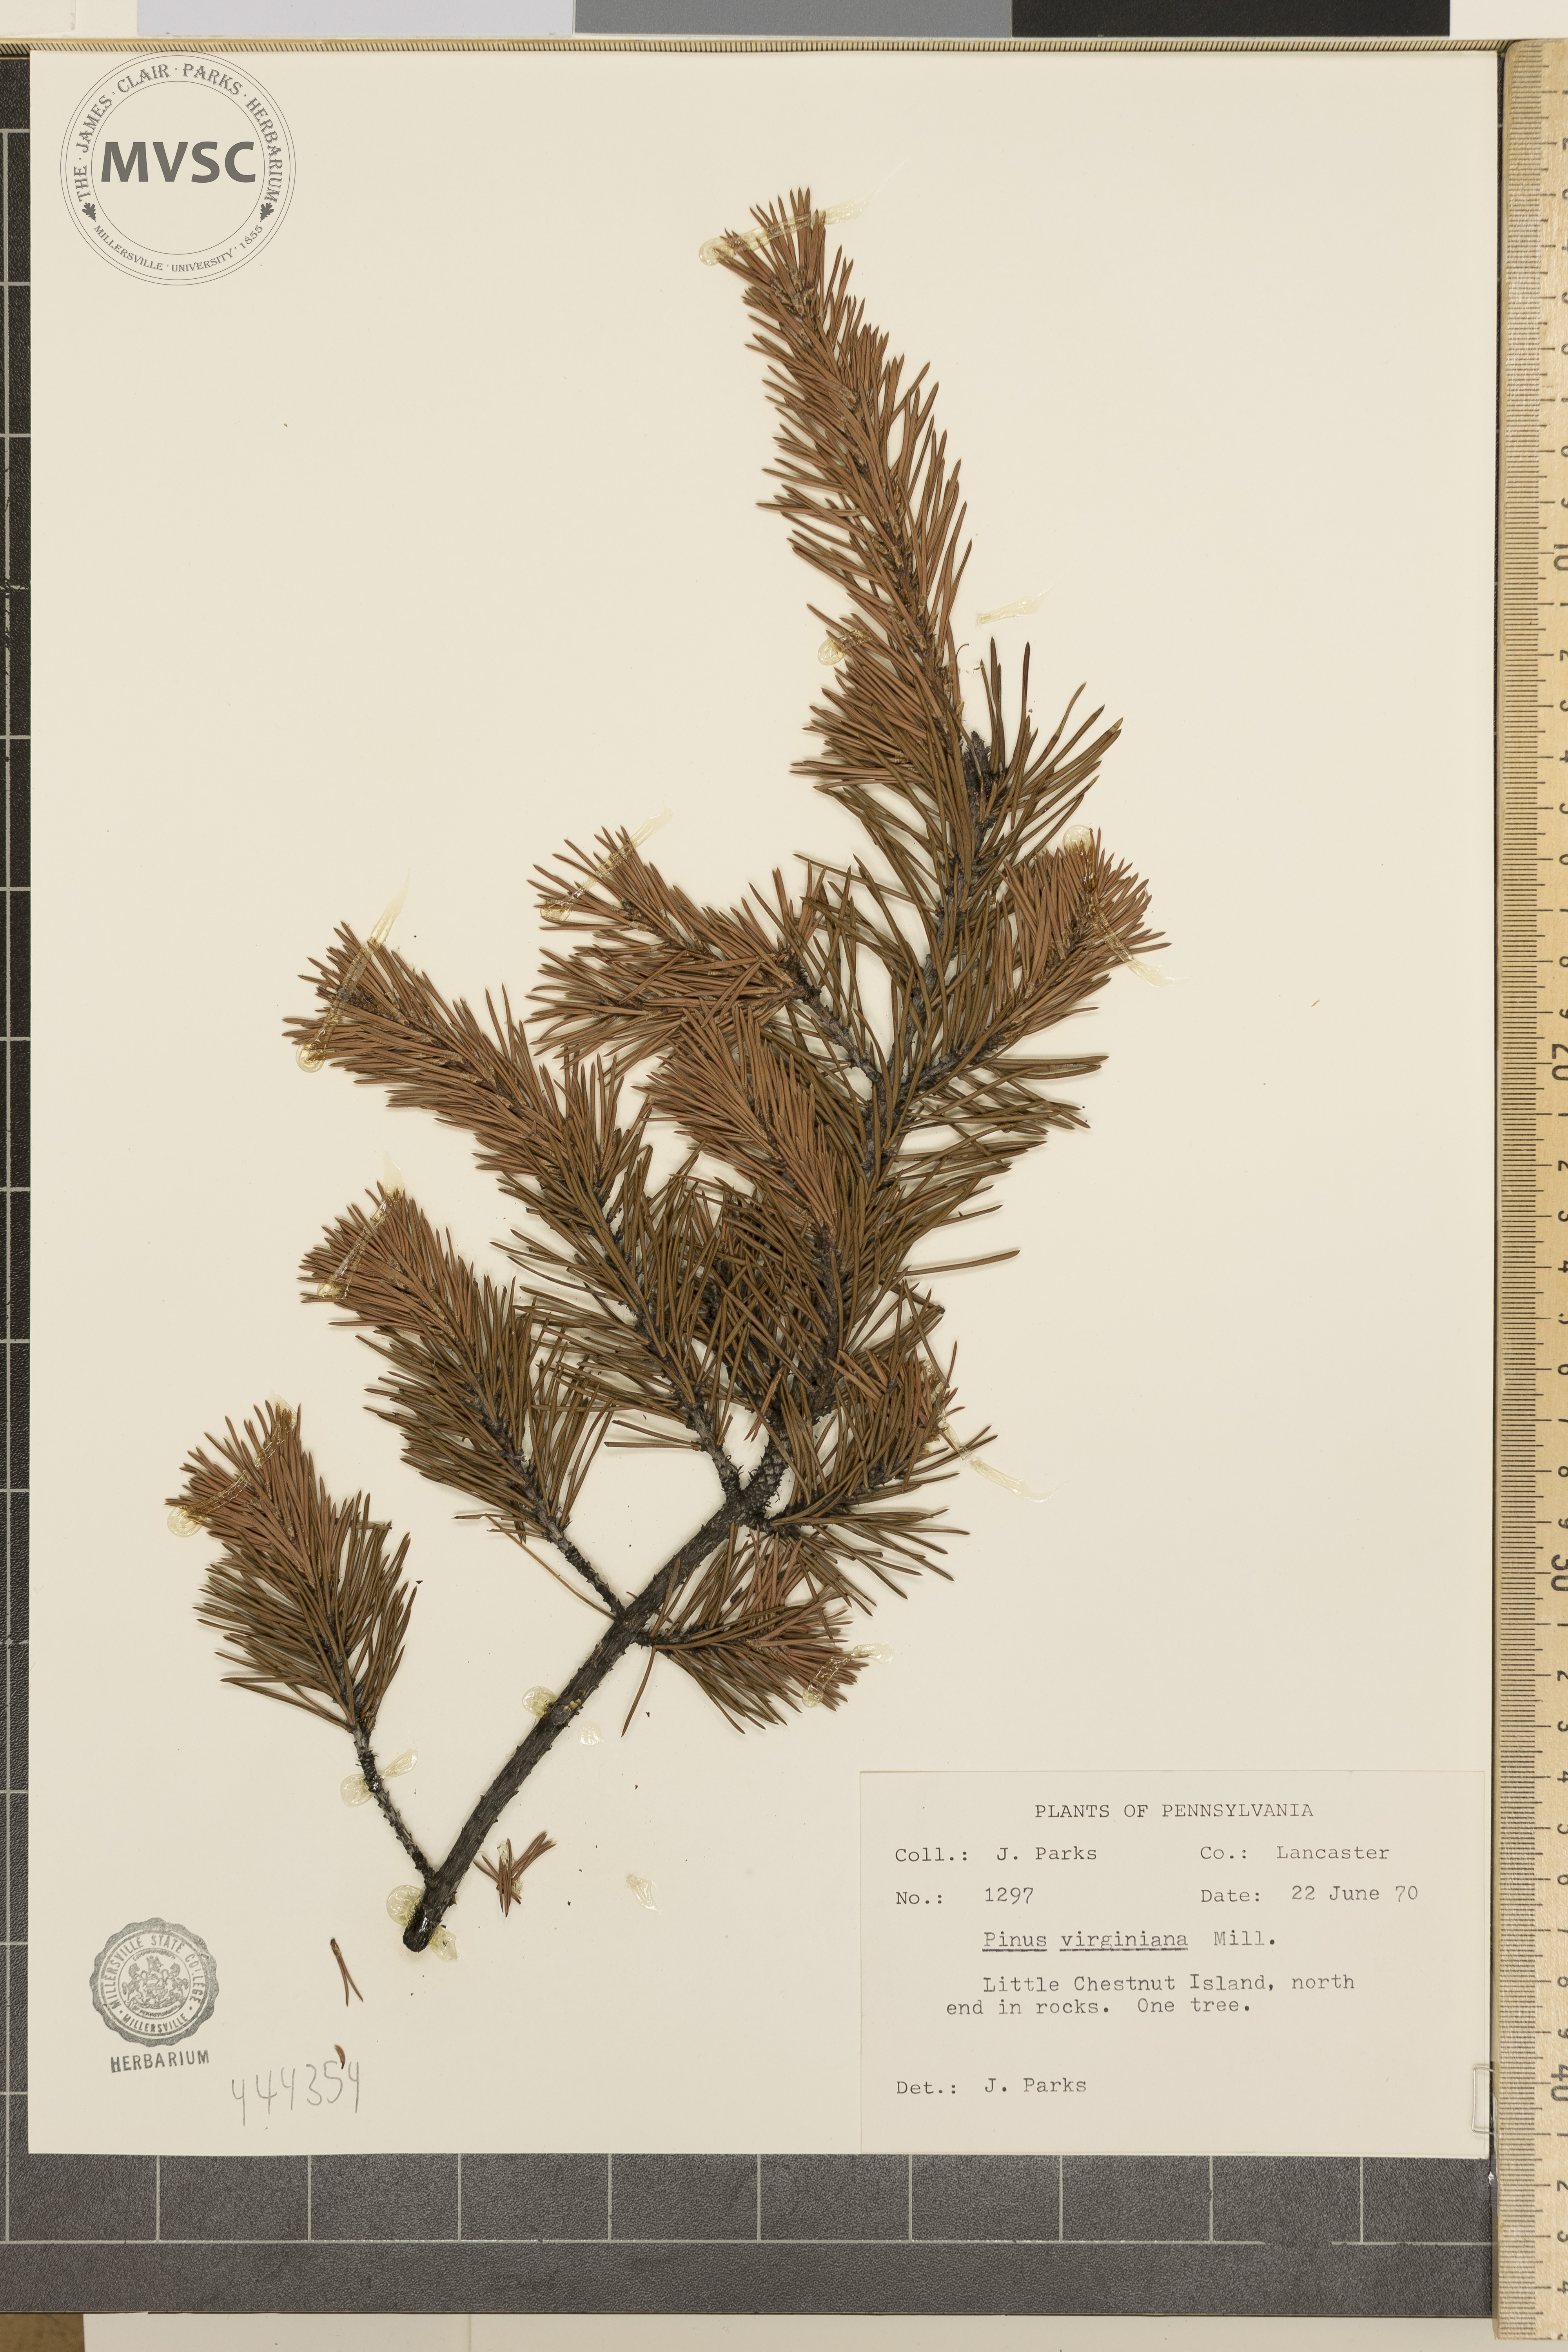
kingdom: Plantae
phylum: Tracheophyta
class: Pinopsida
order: Pinales
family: Pinaceae
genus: Pinus
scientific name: Pinus virginiana
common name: Scrub pine
